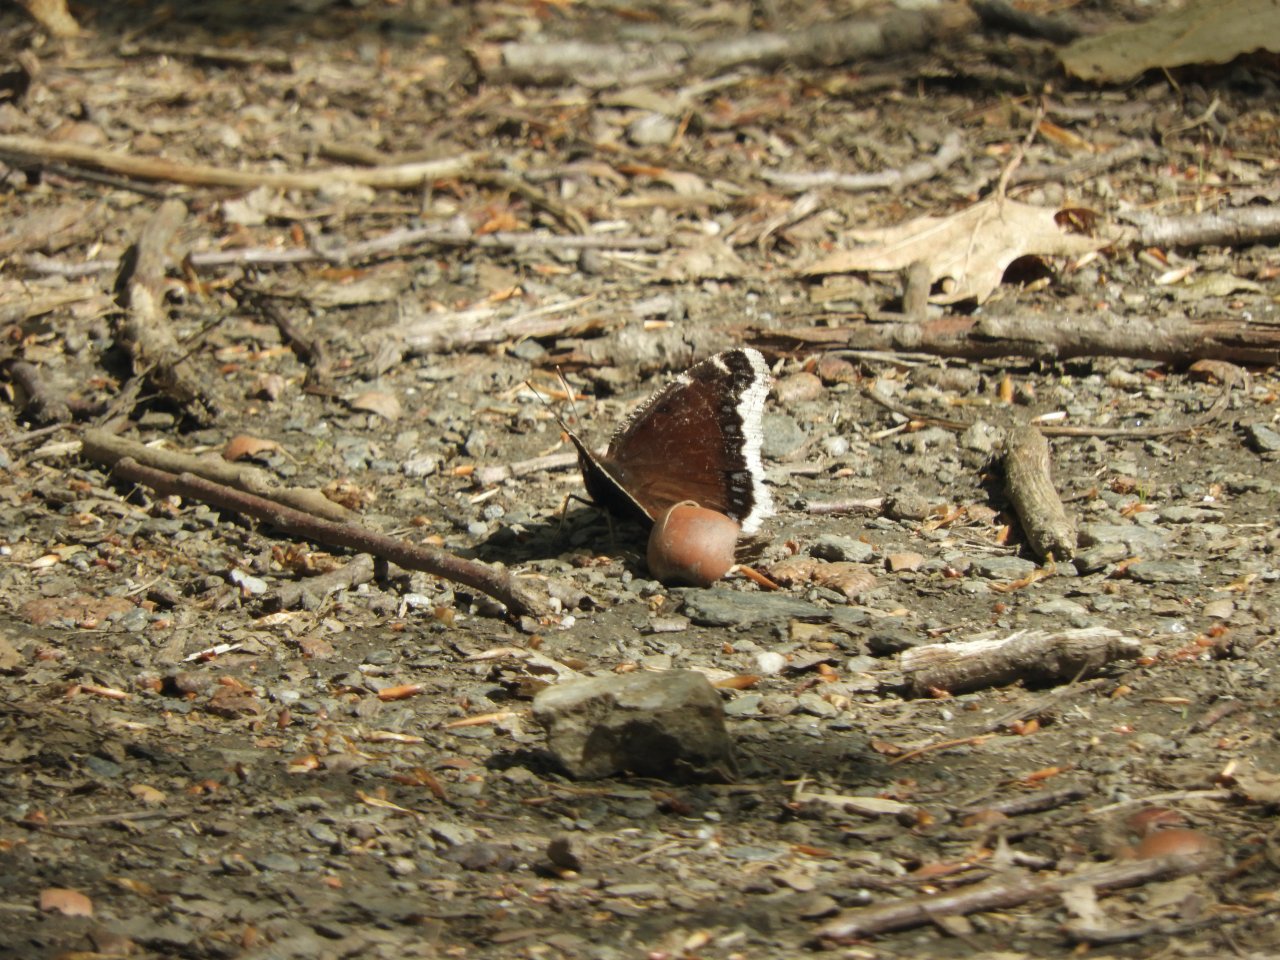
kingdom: Animalia
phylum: Arthropoda
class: Insecta
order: Lepidoptera
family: Nymphalidae
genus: Nymphalis
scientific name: Nymphalis antiopa
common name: Mourning Cloak
